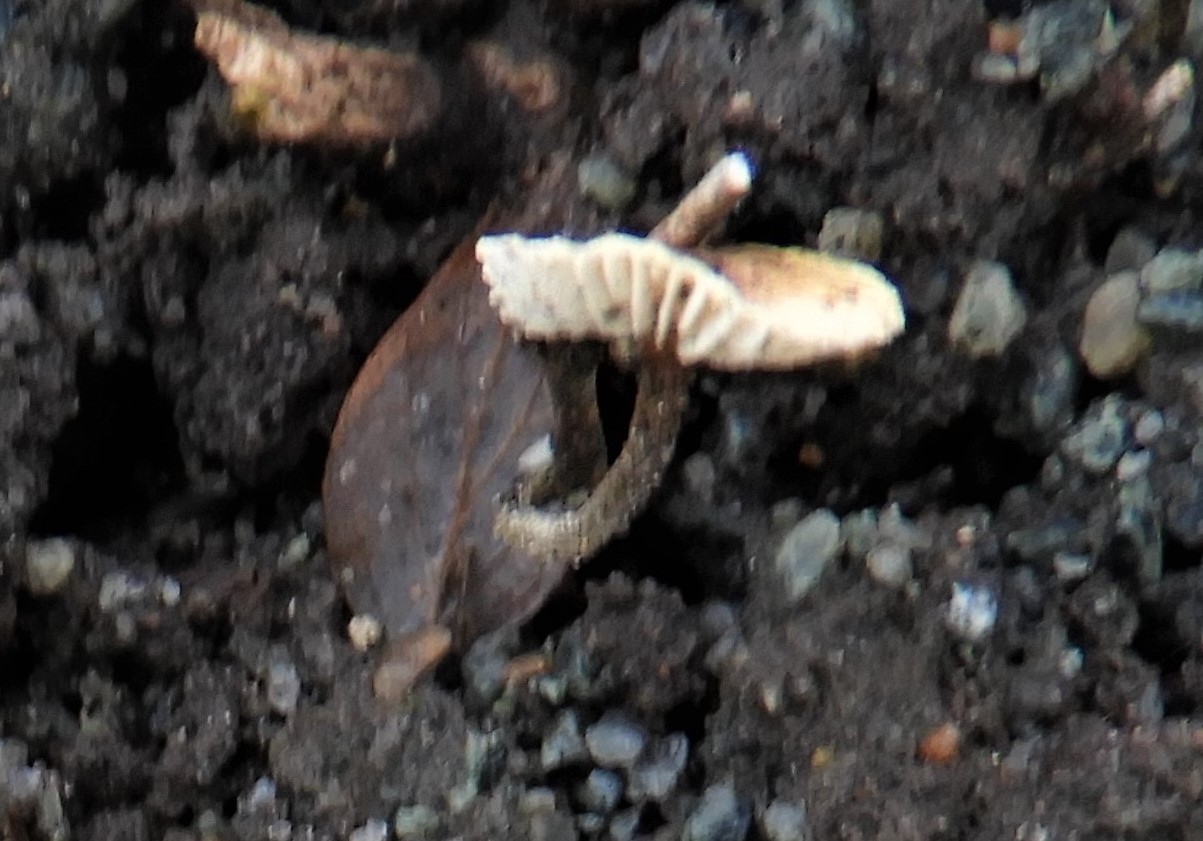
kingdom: Fungi
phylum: Basidiomycota
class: Agaricomycetes
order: Agaricales
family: Marasmiaceae
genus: Crinipellis
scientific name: Crinipellis scabella
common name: børstefod
